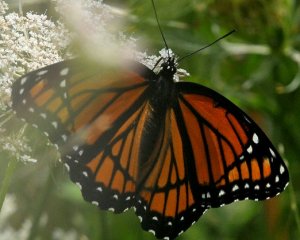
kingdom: Animalia
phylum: Arthropoda
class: Insecta
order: Lepidoptera
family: Nymphalidae
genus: Limenitis
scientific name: Limenitis archippus
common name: Viceroy
